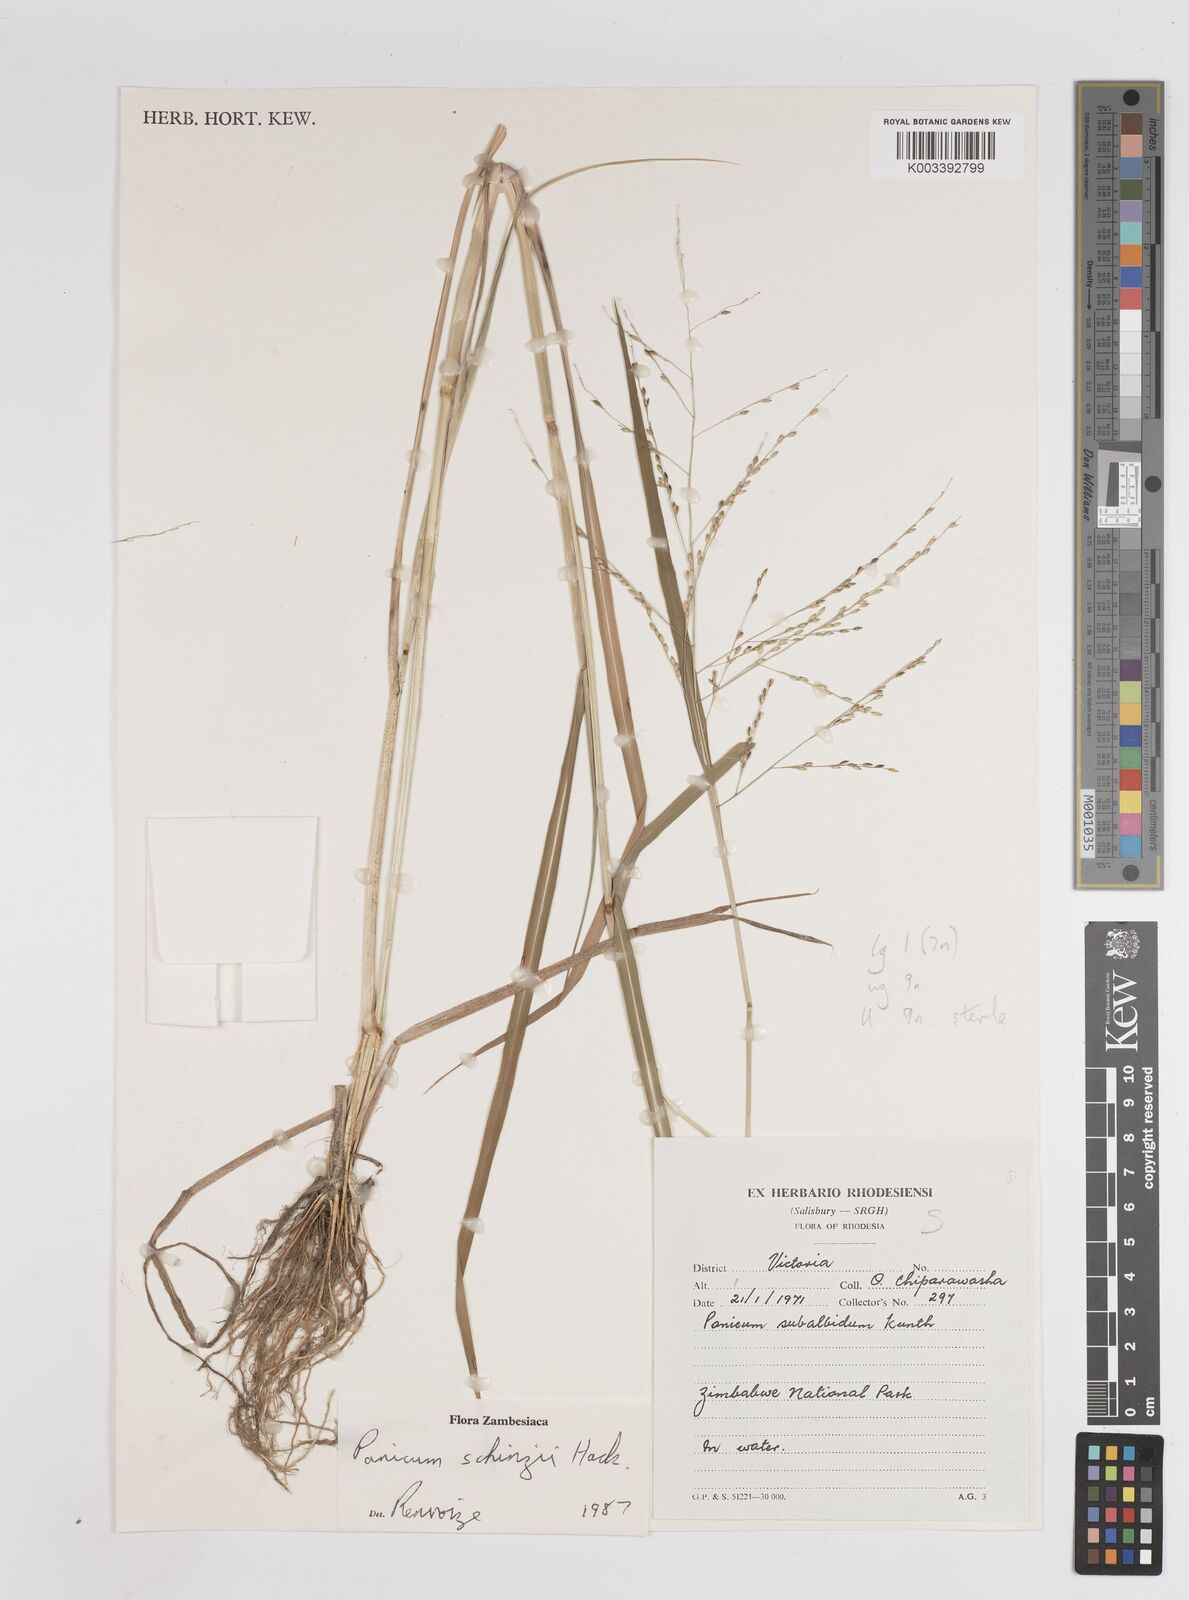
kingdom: Plantae
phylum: Tracheophyta
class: Liliopsida
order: Poales
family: Poaceae
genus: Panicum
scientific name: Panicum
